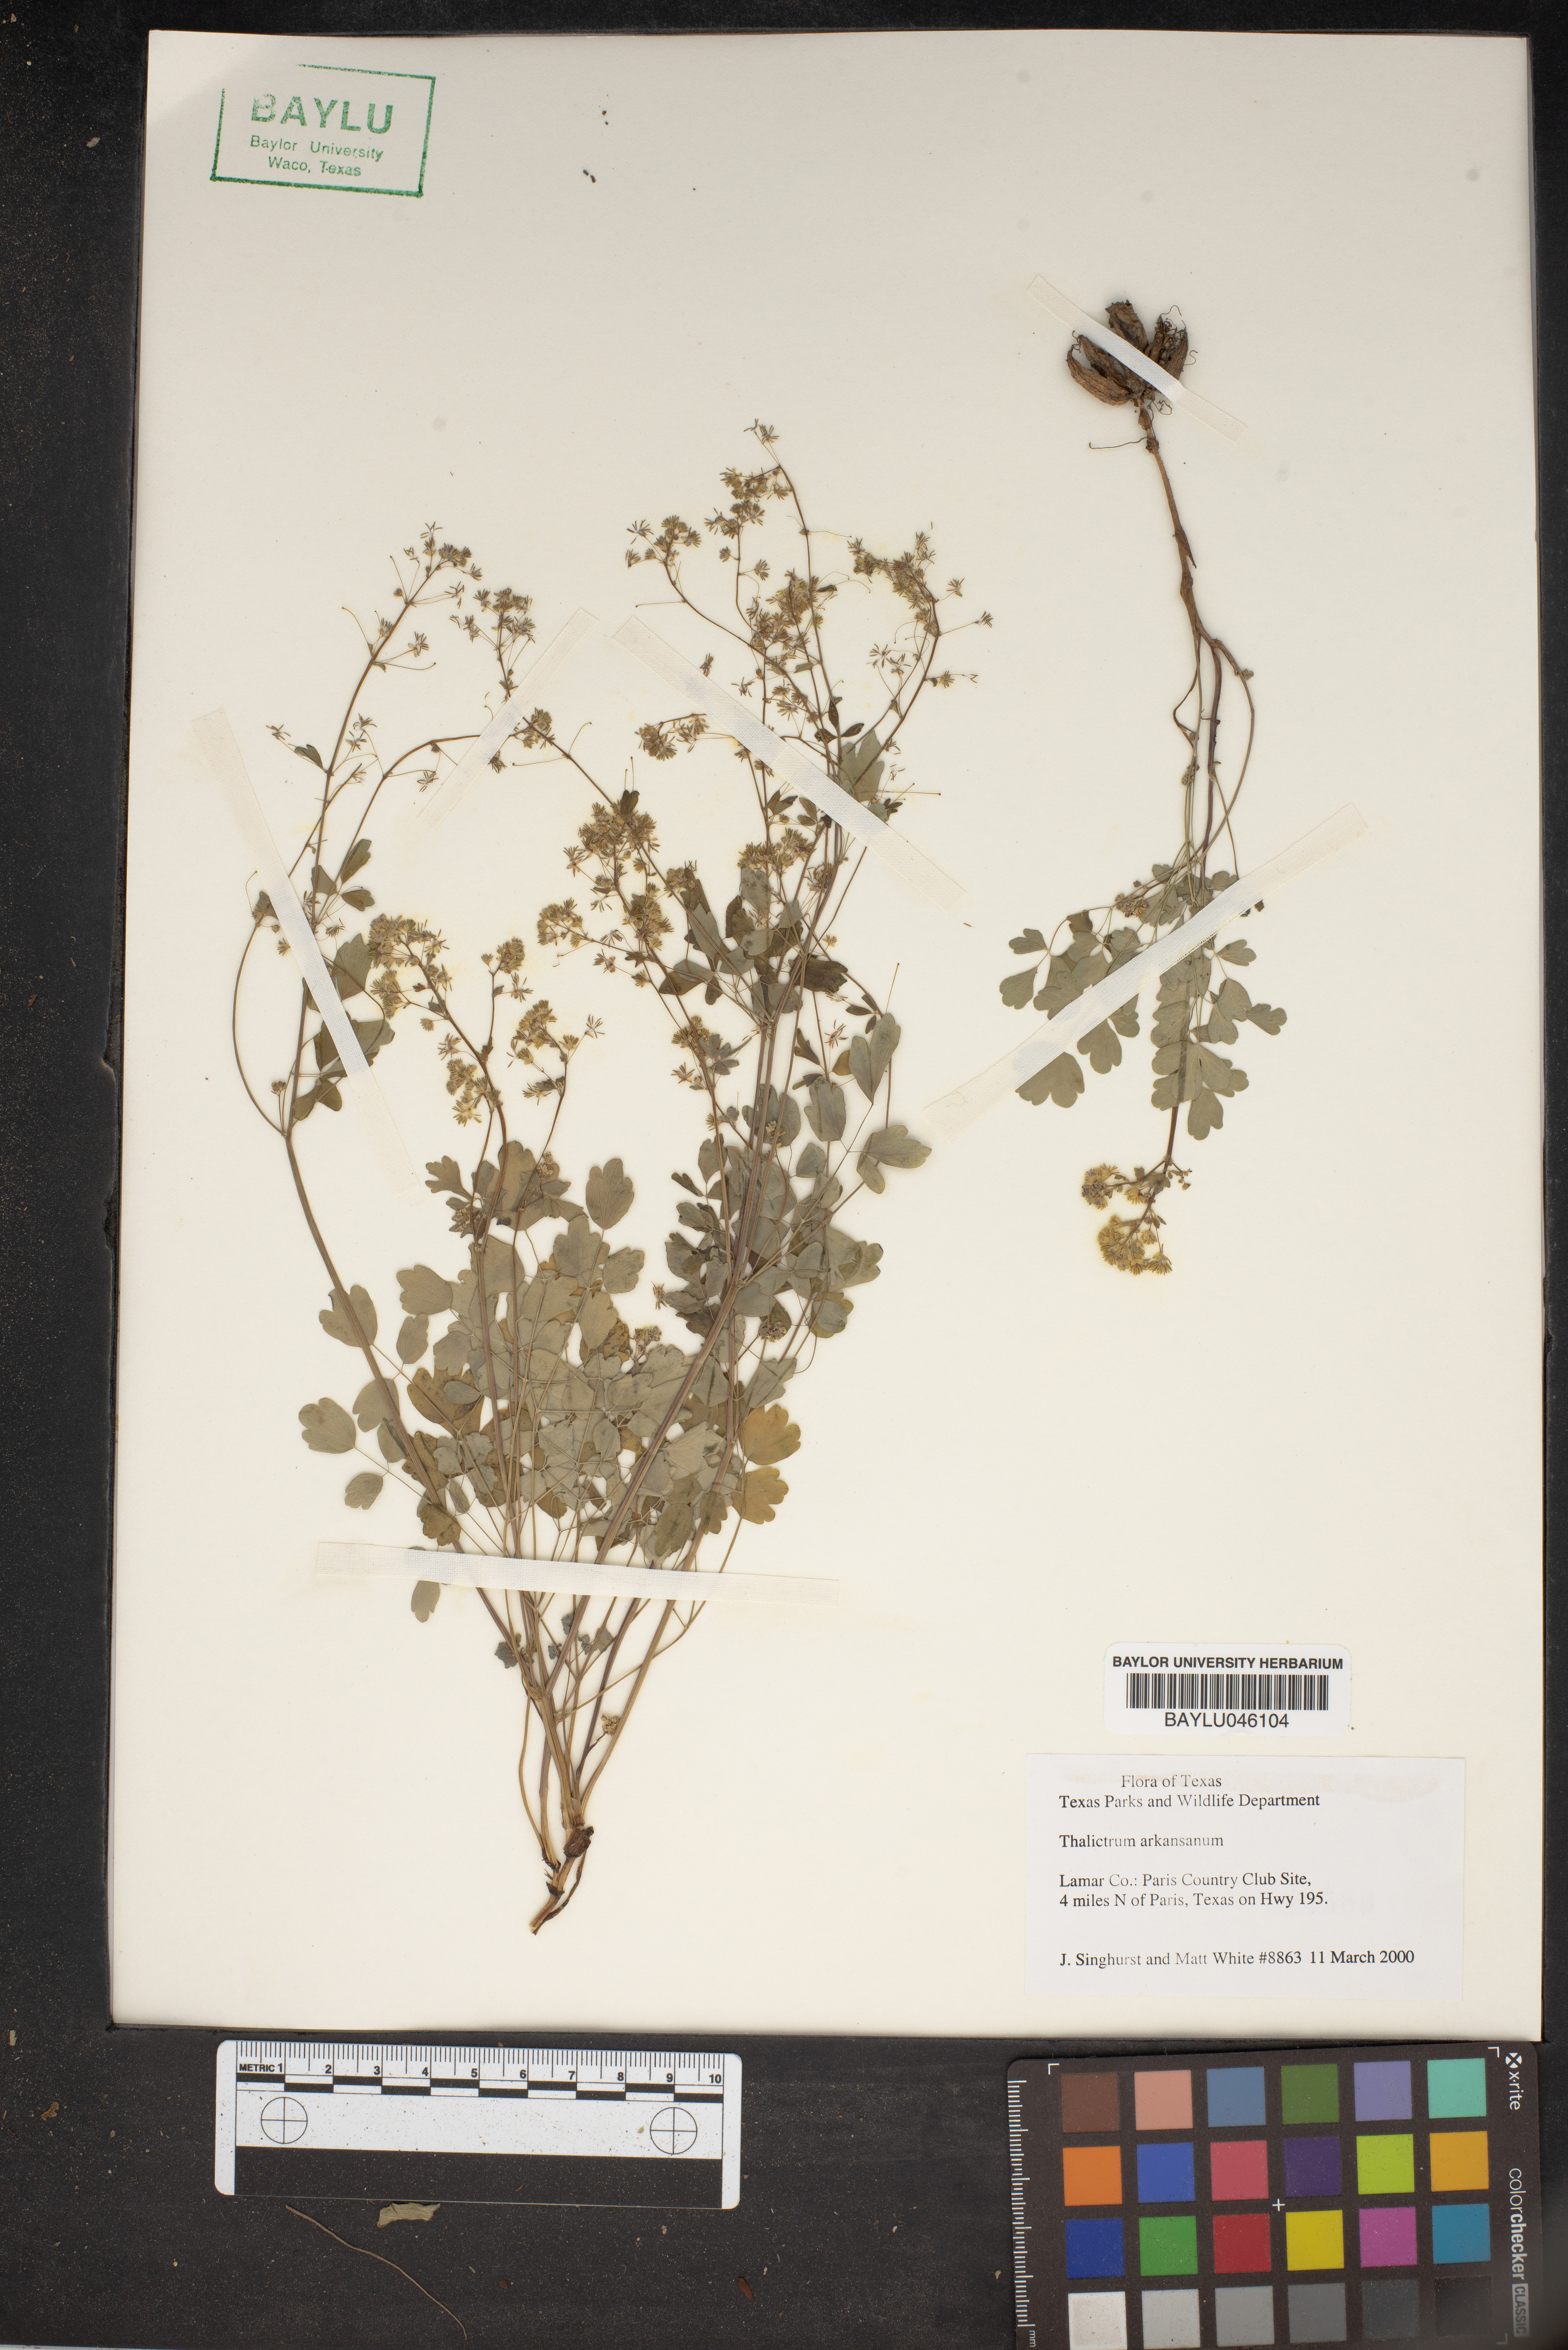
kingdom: Plantae
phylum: Tracheophyta
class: Magnoliopsida
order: Ranunculales
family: Ranunculaceae
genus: Thalictrum
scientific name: Thalictrum arkansanum
